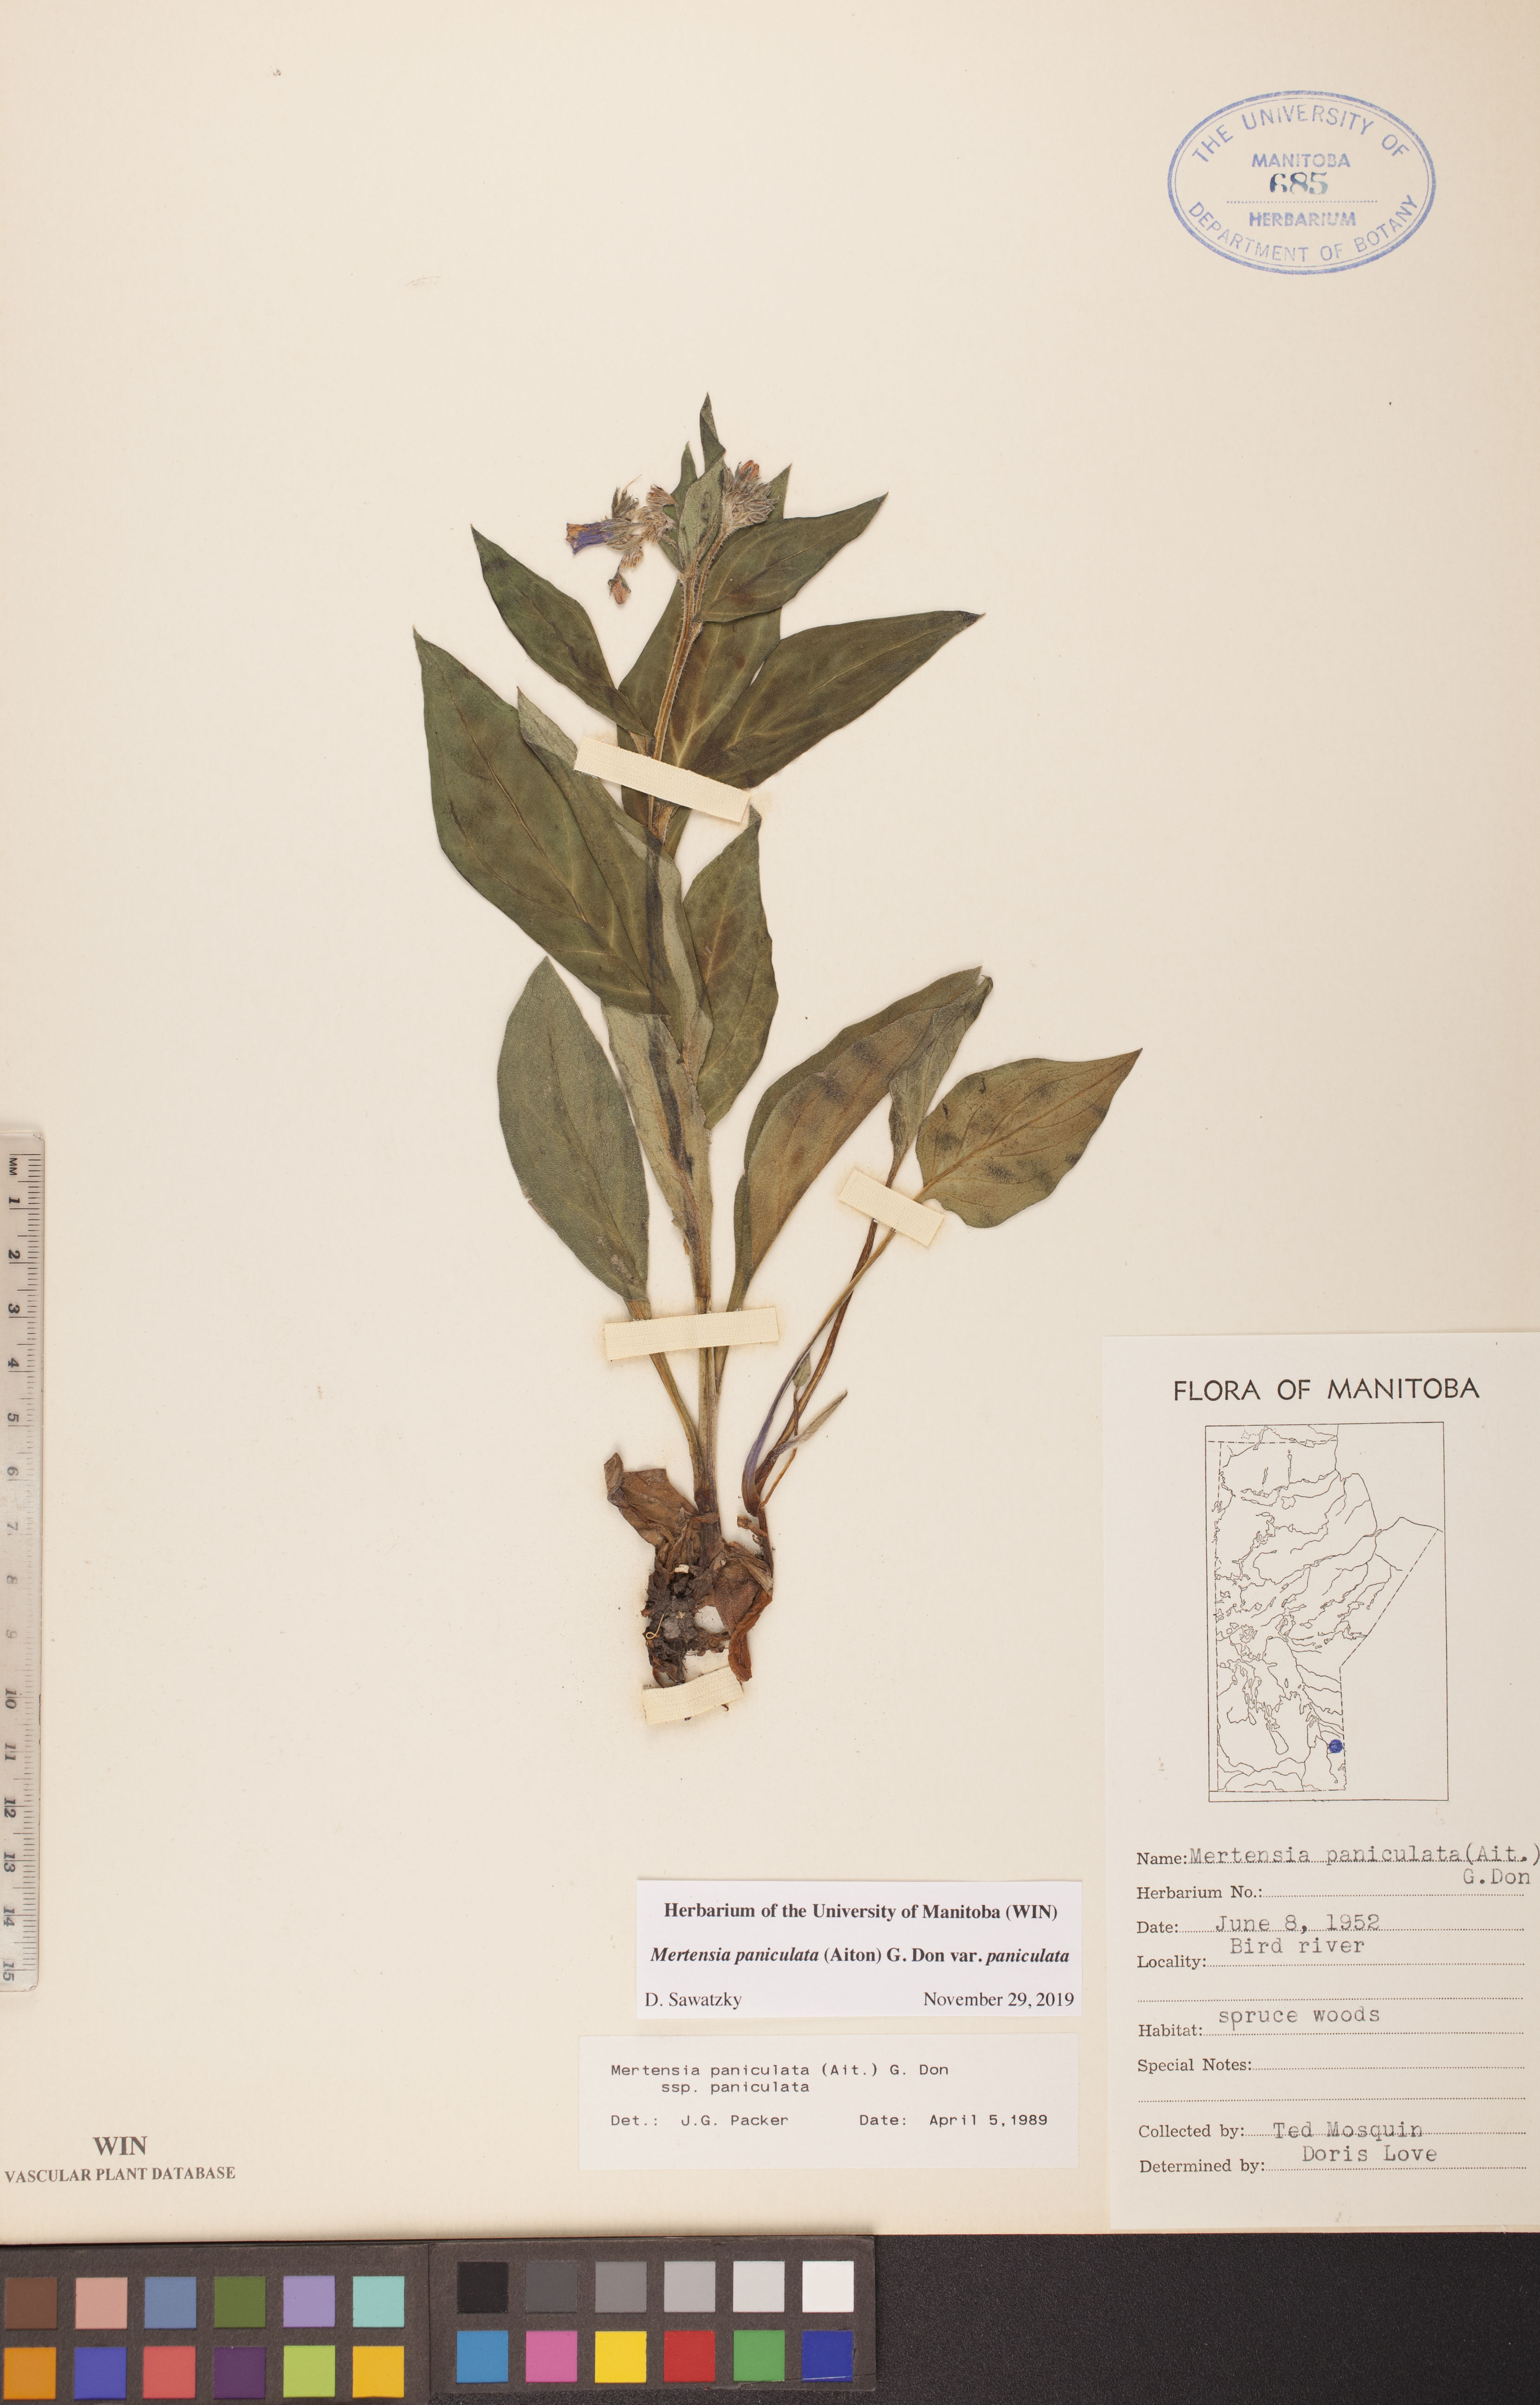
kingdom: Plantae
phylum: Tracheophyta
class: Magnoliopsida
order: Boraginales
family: Boraginaceae
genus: Mertensia
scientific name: Mertensia paniculata
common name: Panicled bluebells
